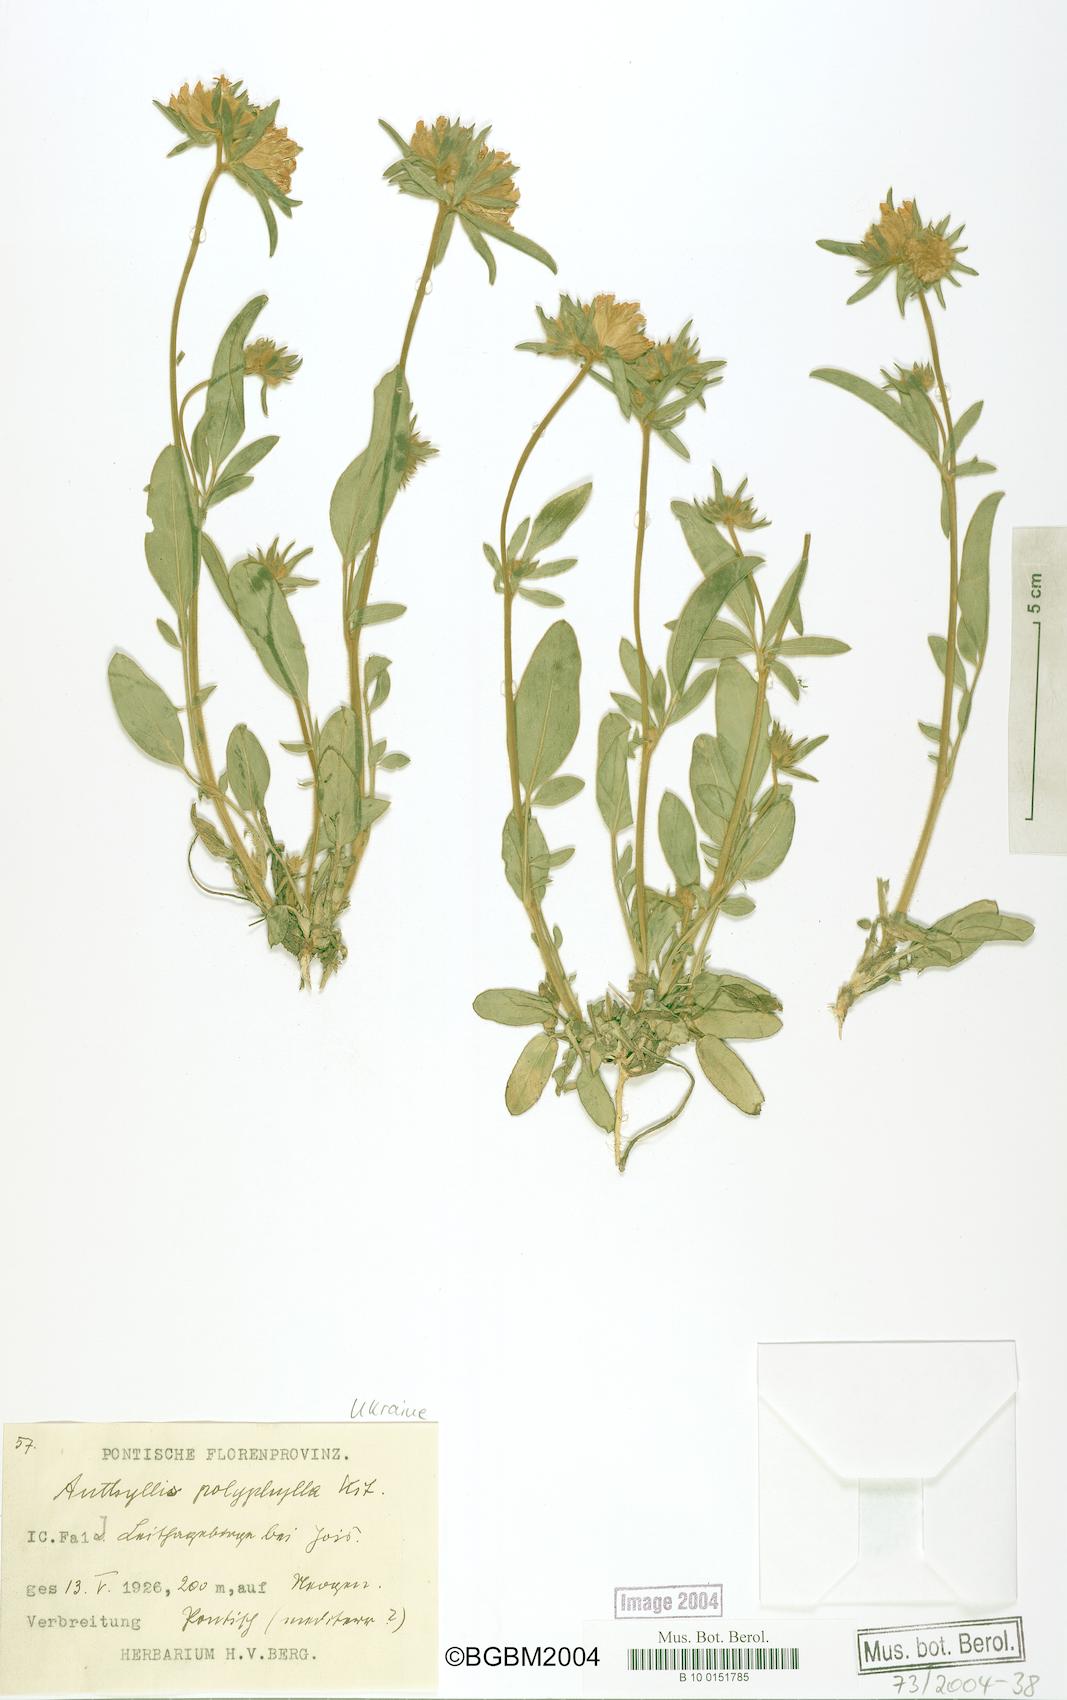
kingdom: Plantae
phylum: Tracheophyta
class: Magnoliopsida
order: Fabales
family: Fabaceae
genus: Anthyllis
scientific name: Anthyllis vulneraria
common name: Kidney vetch
